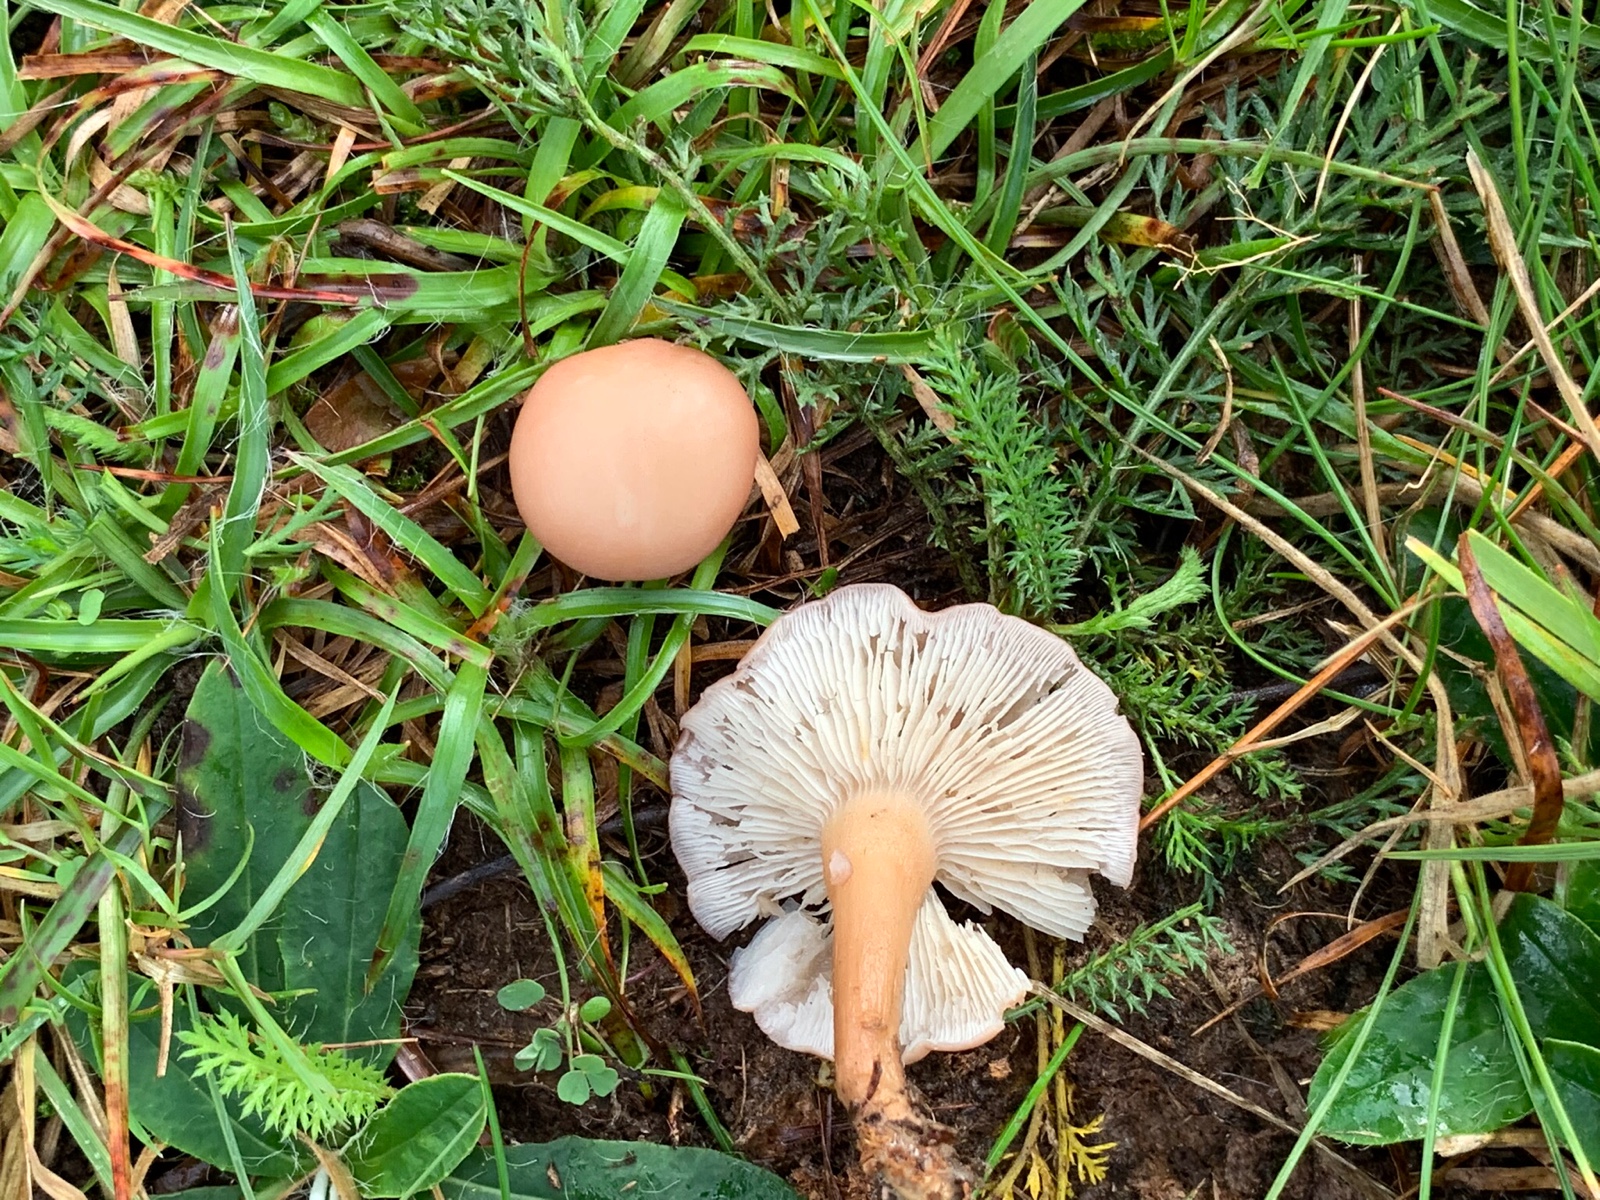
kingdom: Fungi
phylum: Basidiomycota
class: Agaricomycetes
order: Agaricales
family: Lyophyllaceae
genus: Calocybe
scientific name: Calocybe carnea
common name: rosa fagerhat
